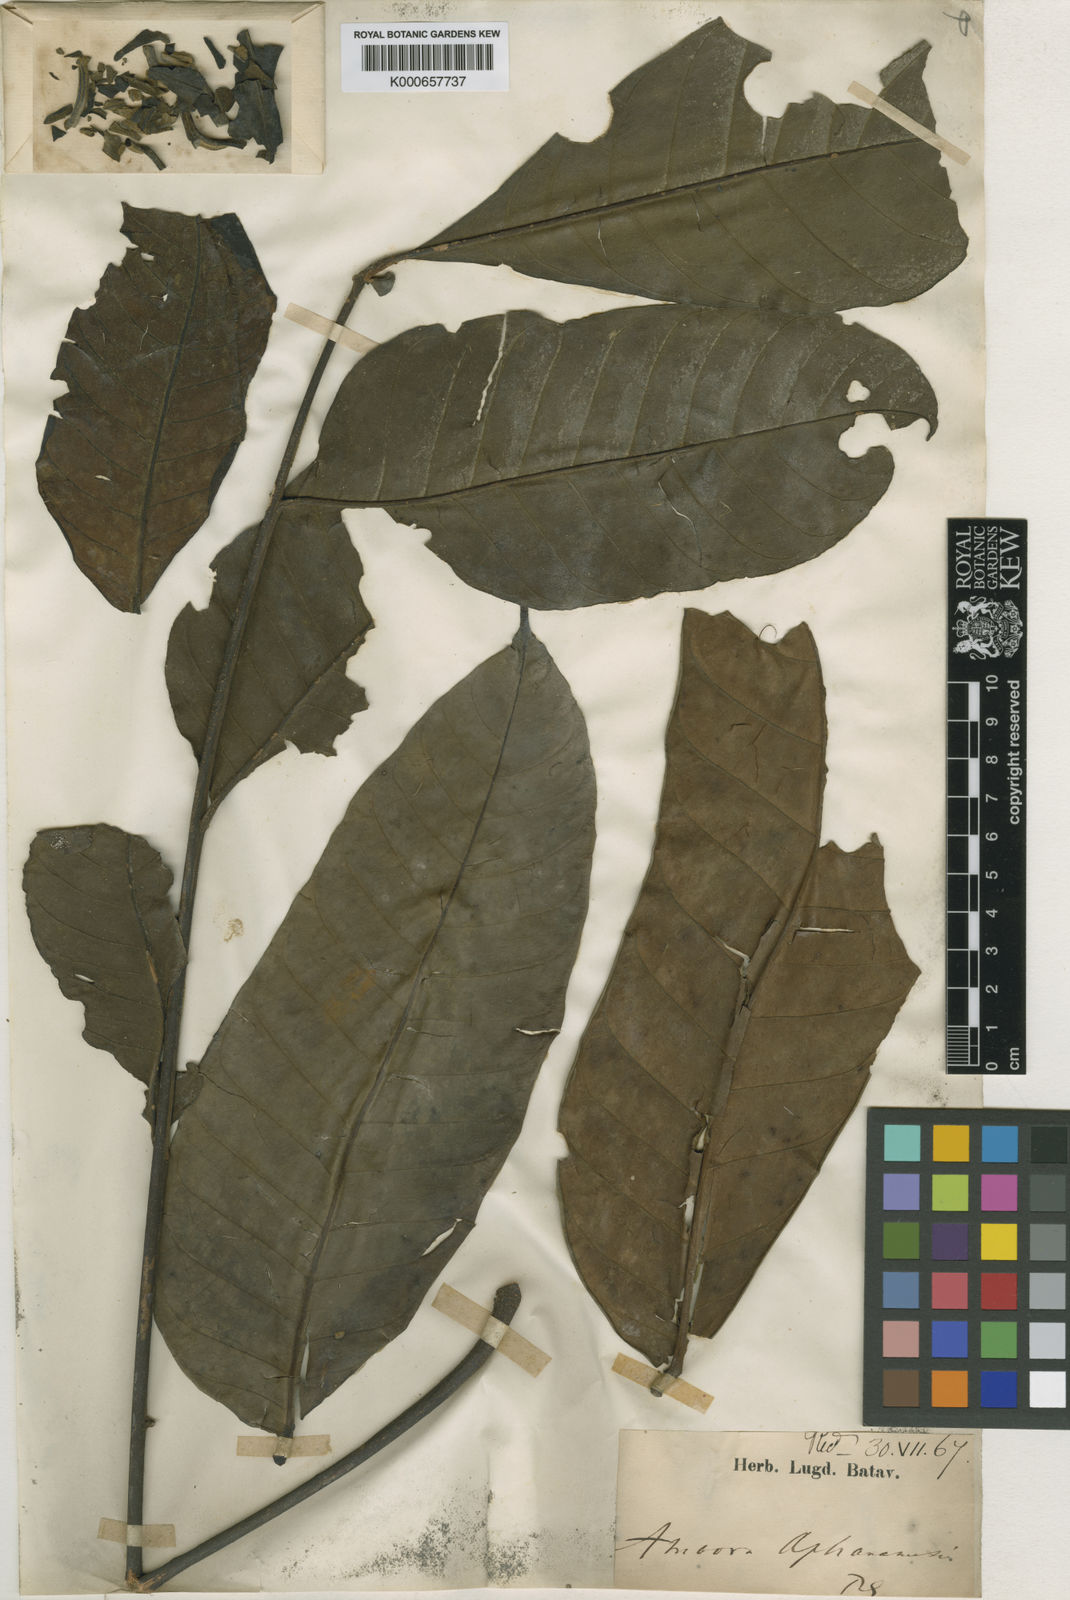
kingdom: Plantae
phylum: Tracheophyta
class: Magnoliopsida
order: Sapindales
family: Meliaceae
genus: Aphanamixis
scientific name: Aphanamixis polystachya
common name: Pithraj tree
